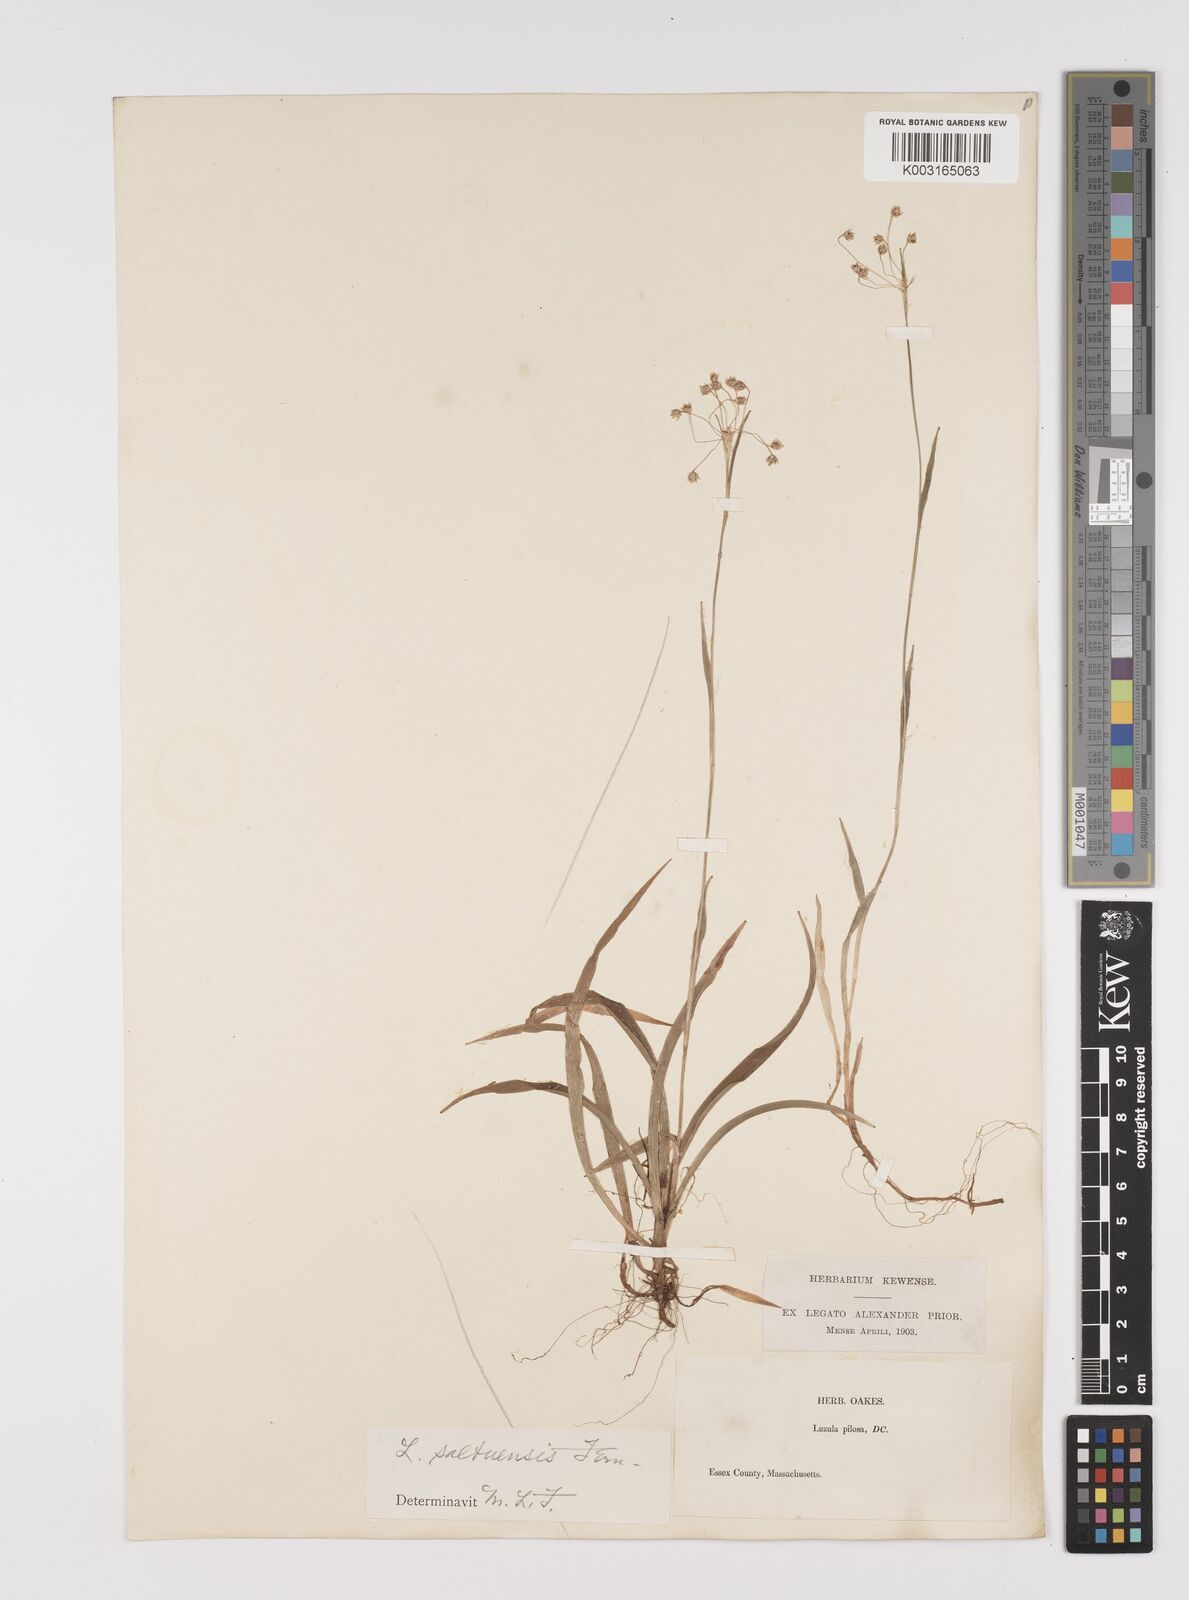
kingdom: Plantae
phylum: Tracheophyta
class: Liliopsida
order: Poales
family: Juncaceae
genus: Luzula
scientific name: Luzula acuminata
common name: Hairy woodrush
